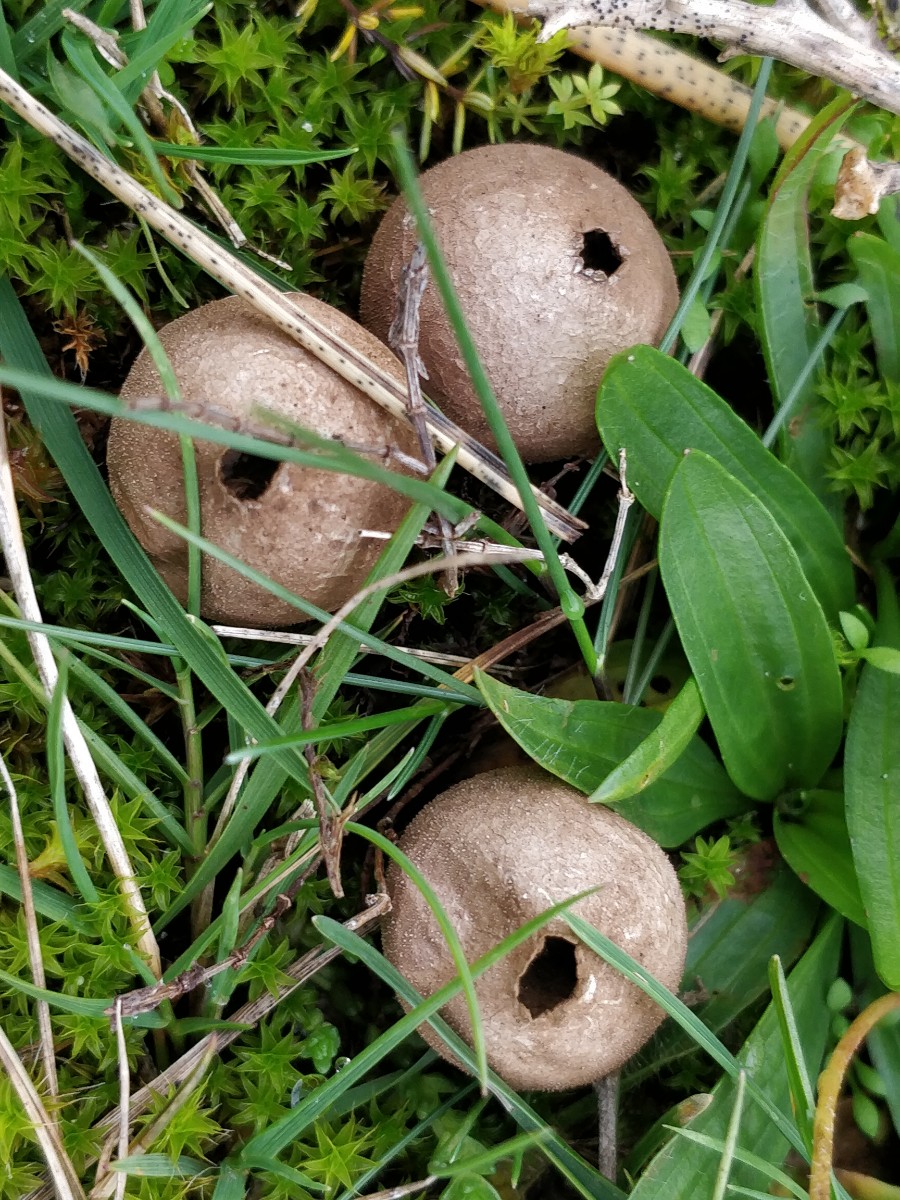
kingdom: Fungi
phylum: Basidiomycota
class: Agaricomycetes
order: Agaricales
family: Lycoperdaceae
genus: Lycoperdon
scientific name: Lycoperdon lividum
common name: mark-støvbold
